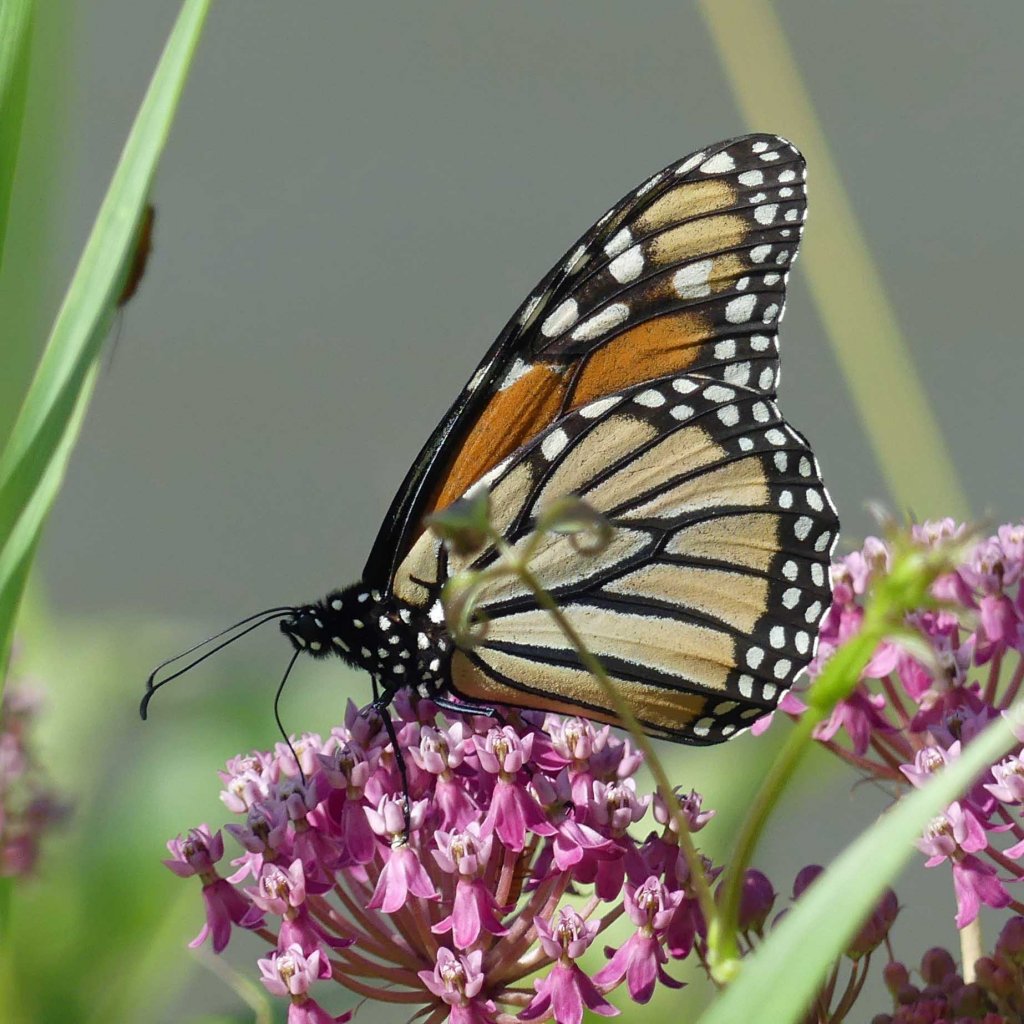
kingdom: Animalia
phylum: Arthropoda
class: Insecta
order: Lepidoptera
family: Nymphalidae
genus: Danaus
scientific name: Danaus plexippus
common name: Monarch
